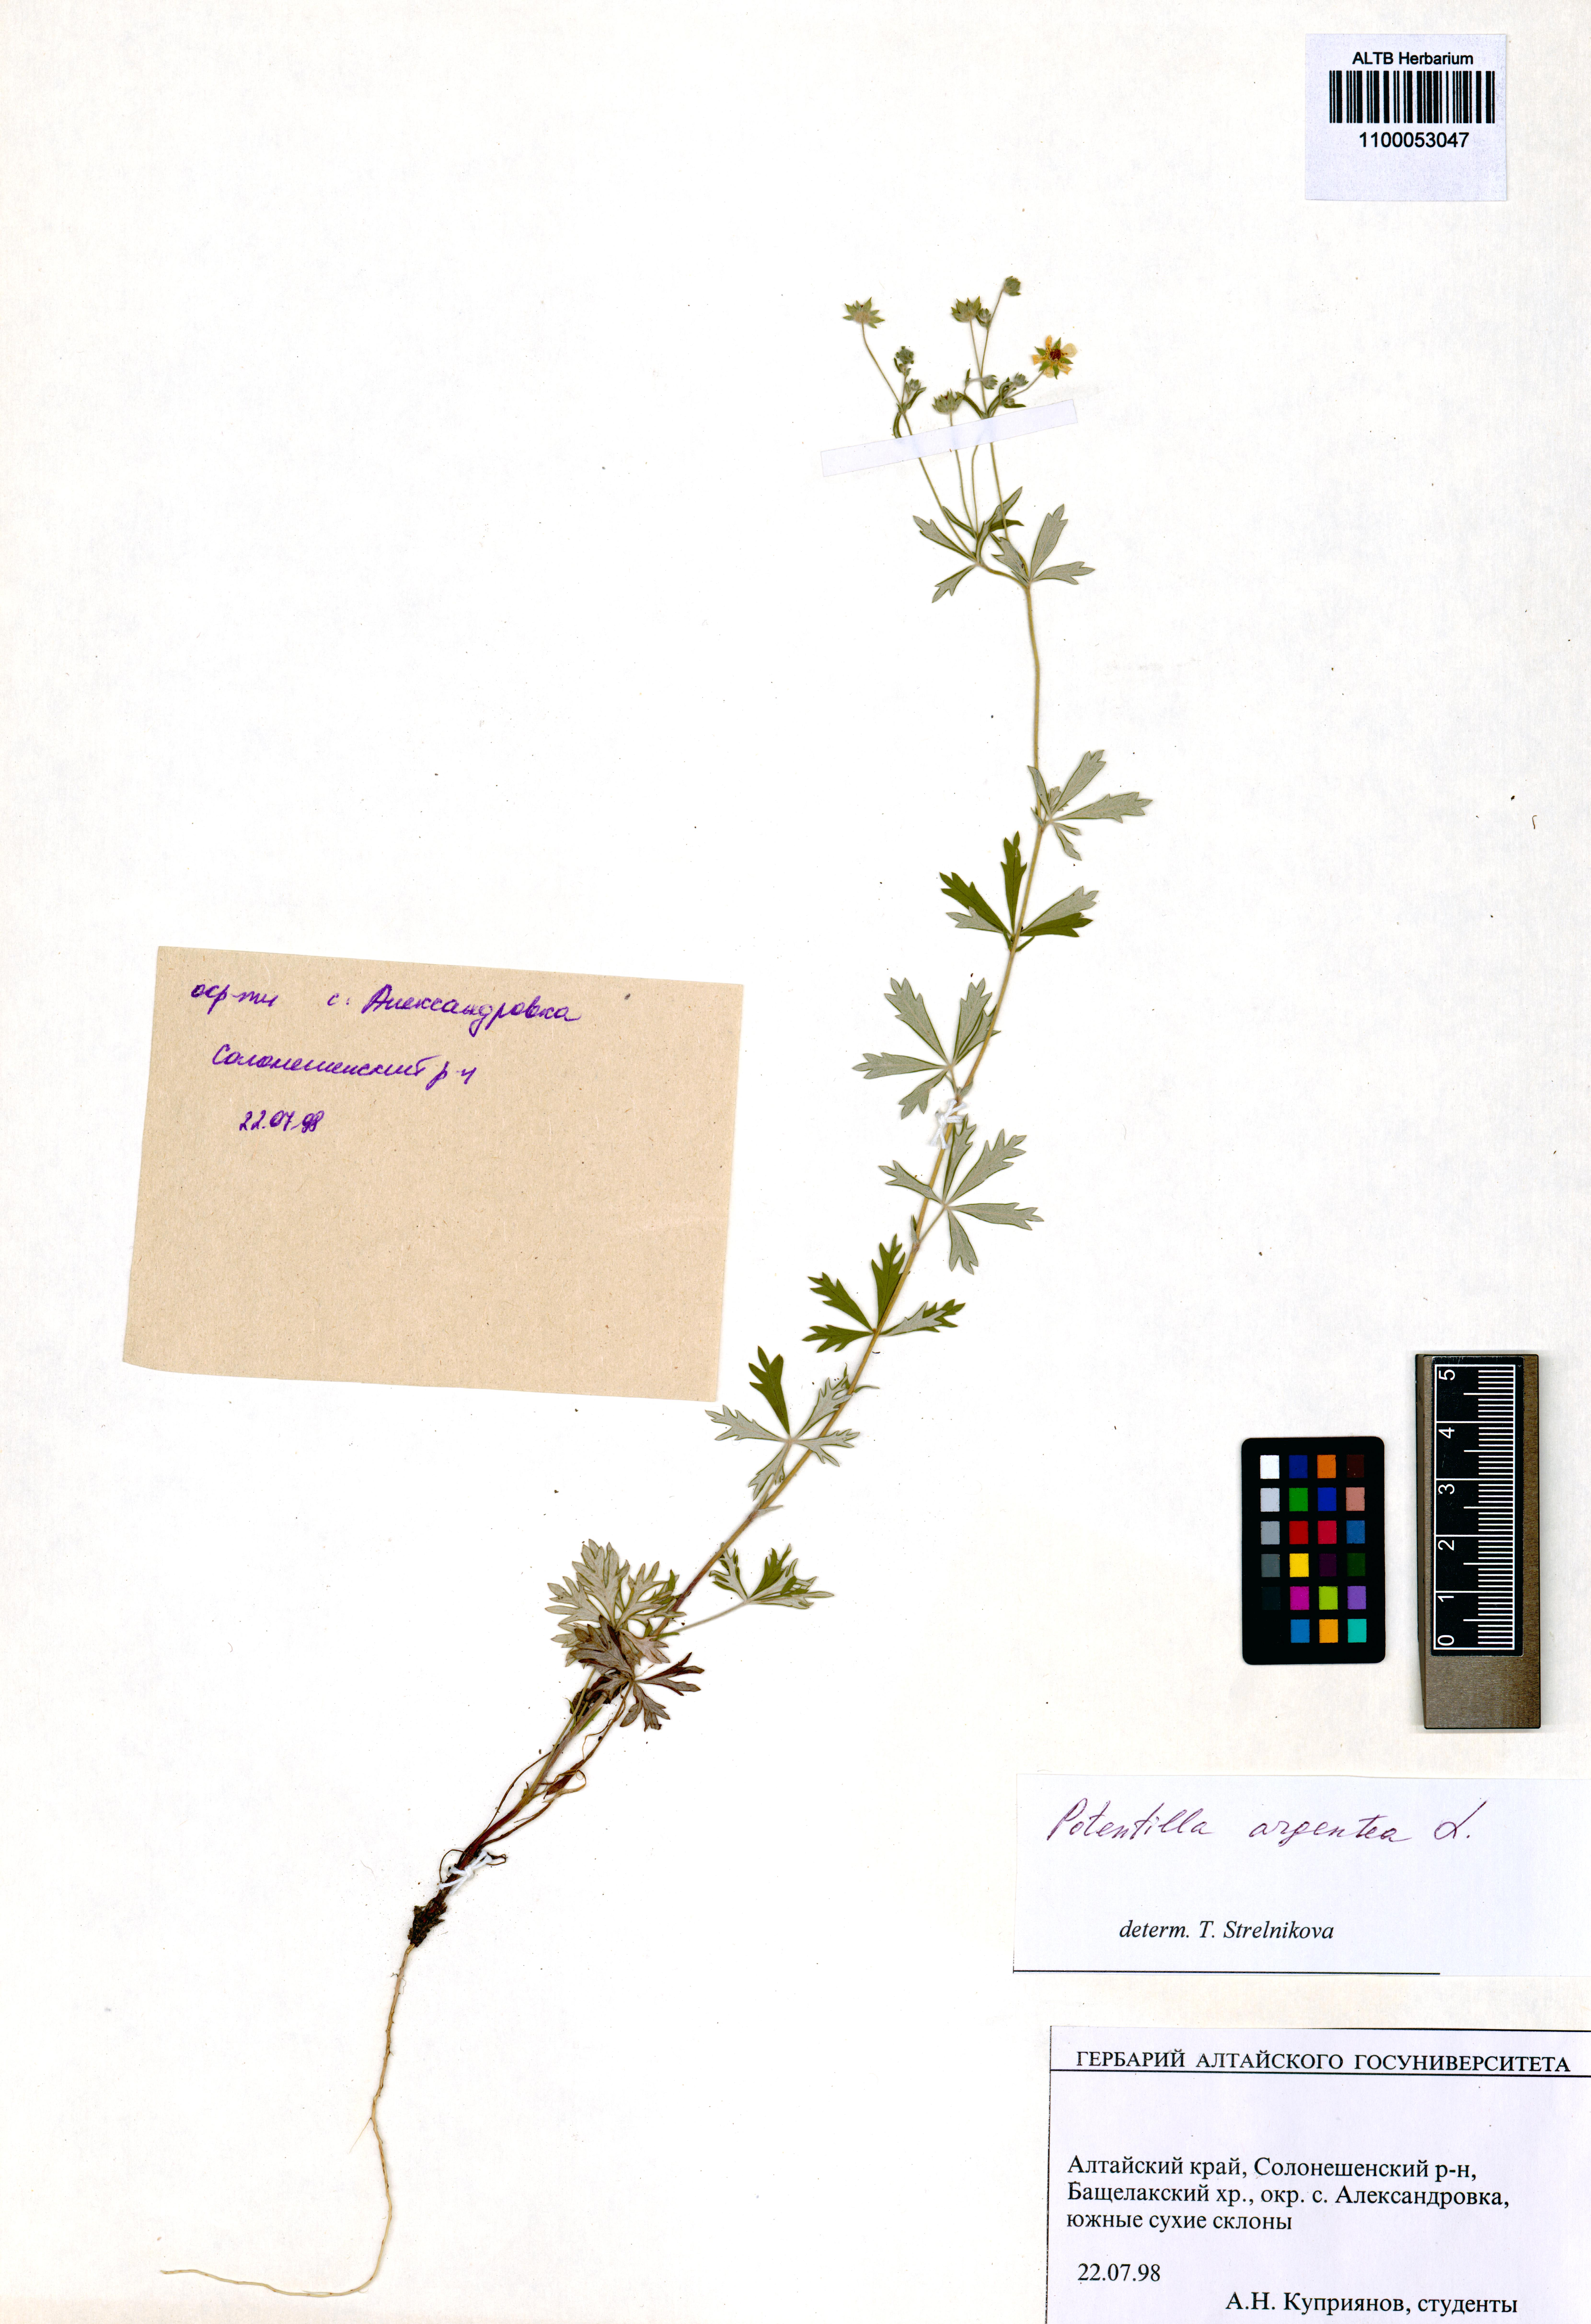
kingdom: Plantae
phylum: Tracheophyta
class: Magnoliopsida
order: Rosales
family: Rosaceae
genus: Potentilla
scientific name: Potentilla argentea
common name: Hoary cinquefoil
